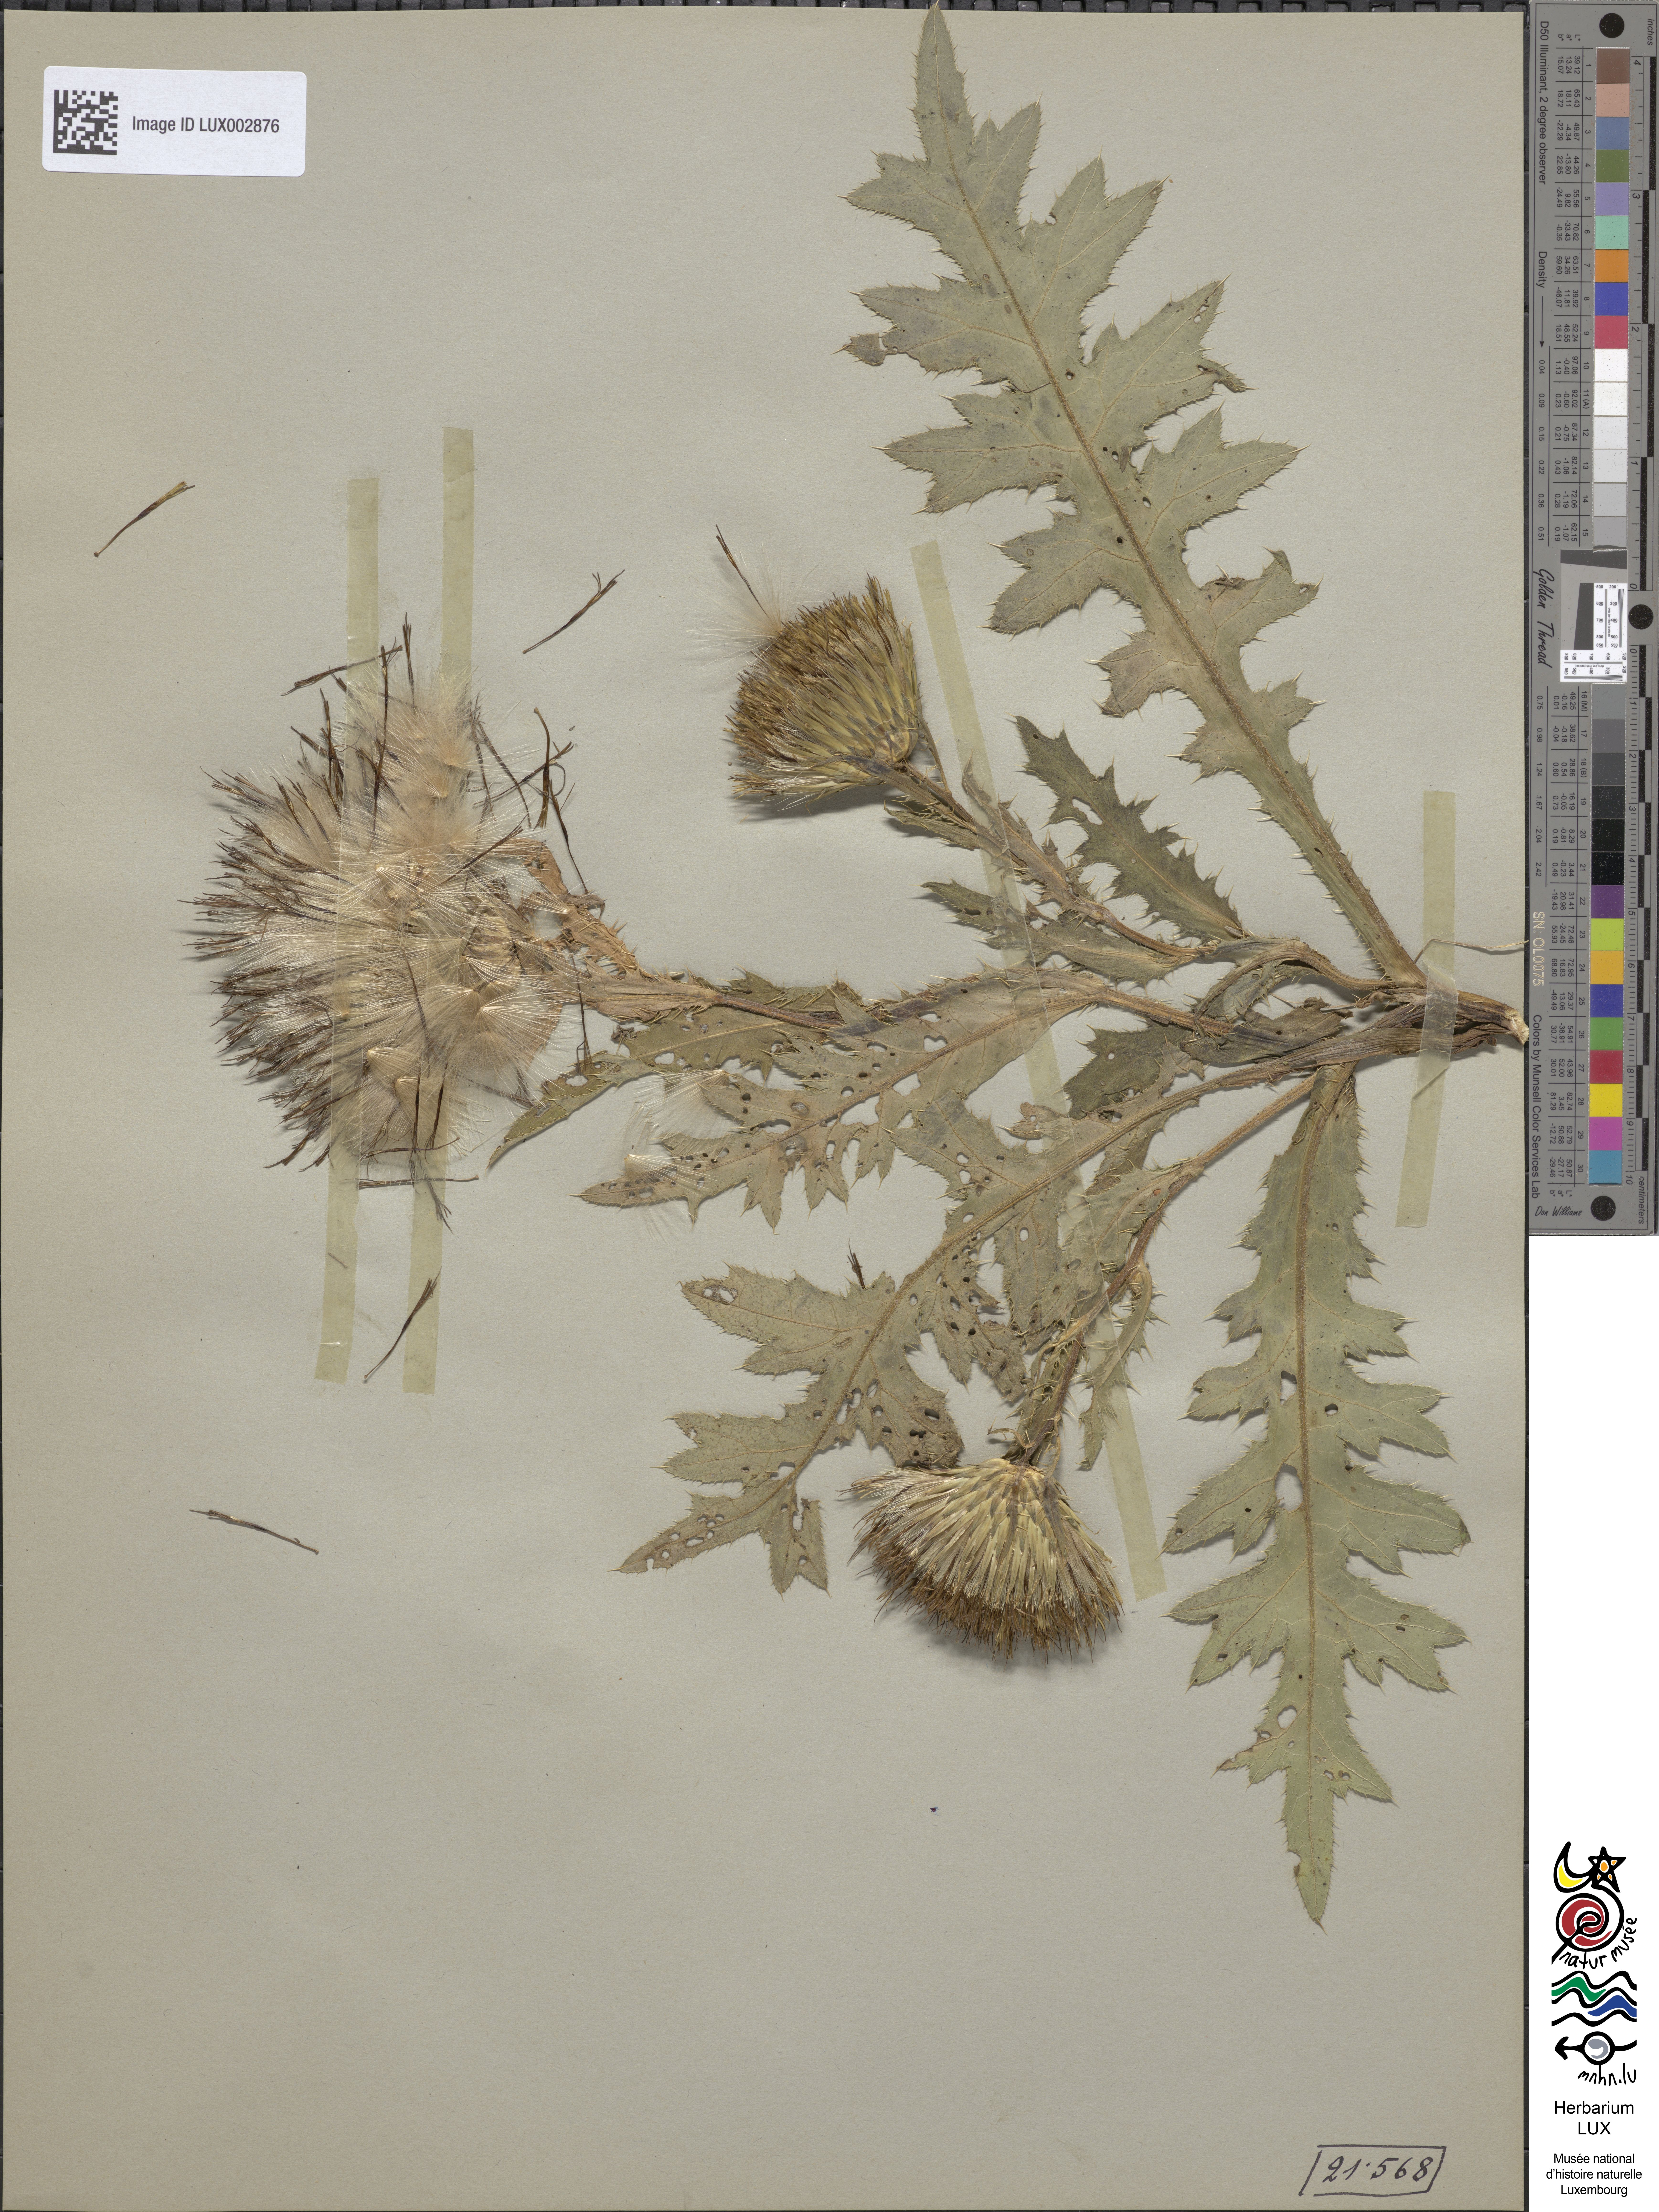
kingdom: Plantae
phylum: Tracheophyta
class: Magnoliopsida
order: Asterales
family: Asteraceae
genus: Cirsium
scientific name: Cirsium rigens
